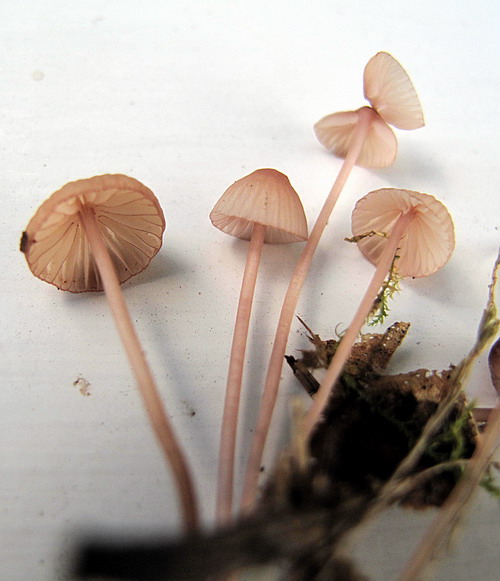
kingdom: Fungi
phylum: Basidiomycota
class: Agaricomycetes
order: Agaricales
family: Mycenaceae
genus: Mycena
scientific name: Mycena sanguinolenta
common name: rødmælket huesvamp
